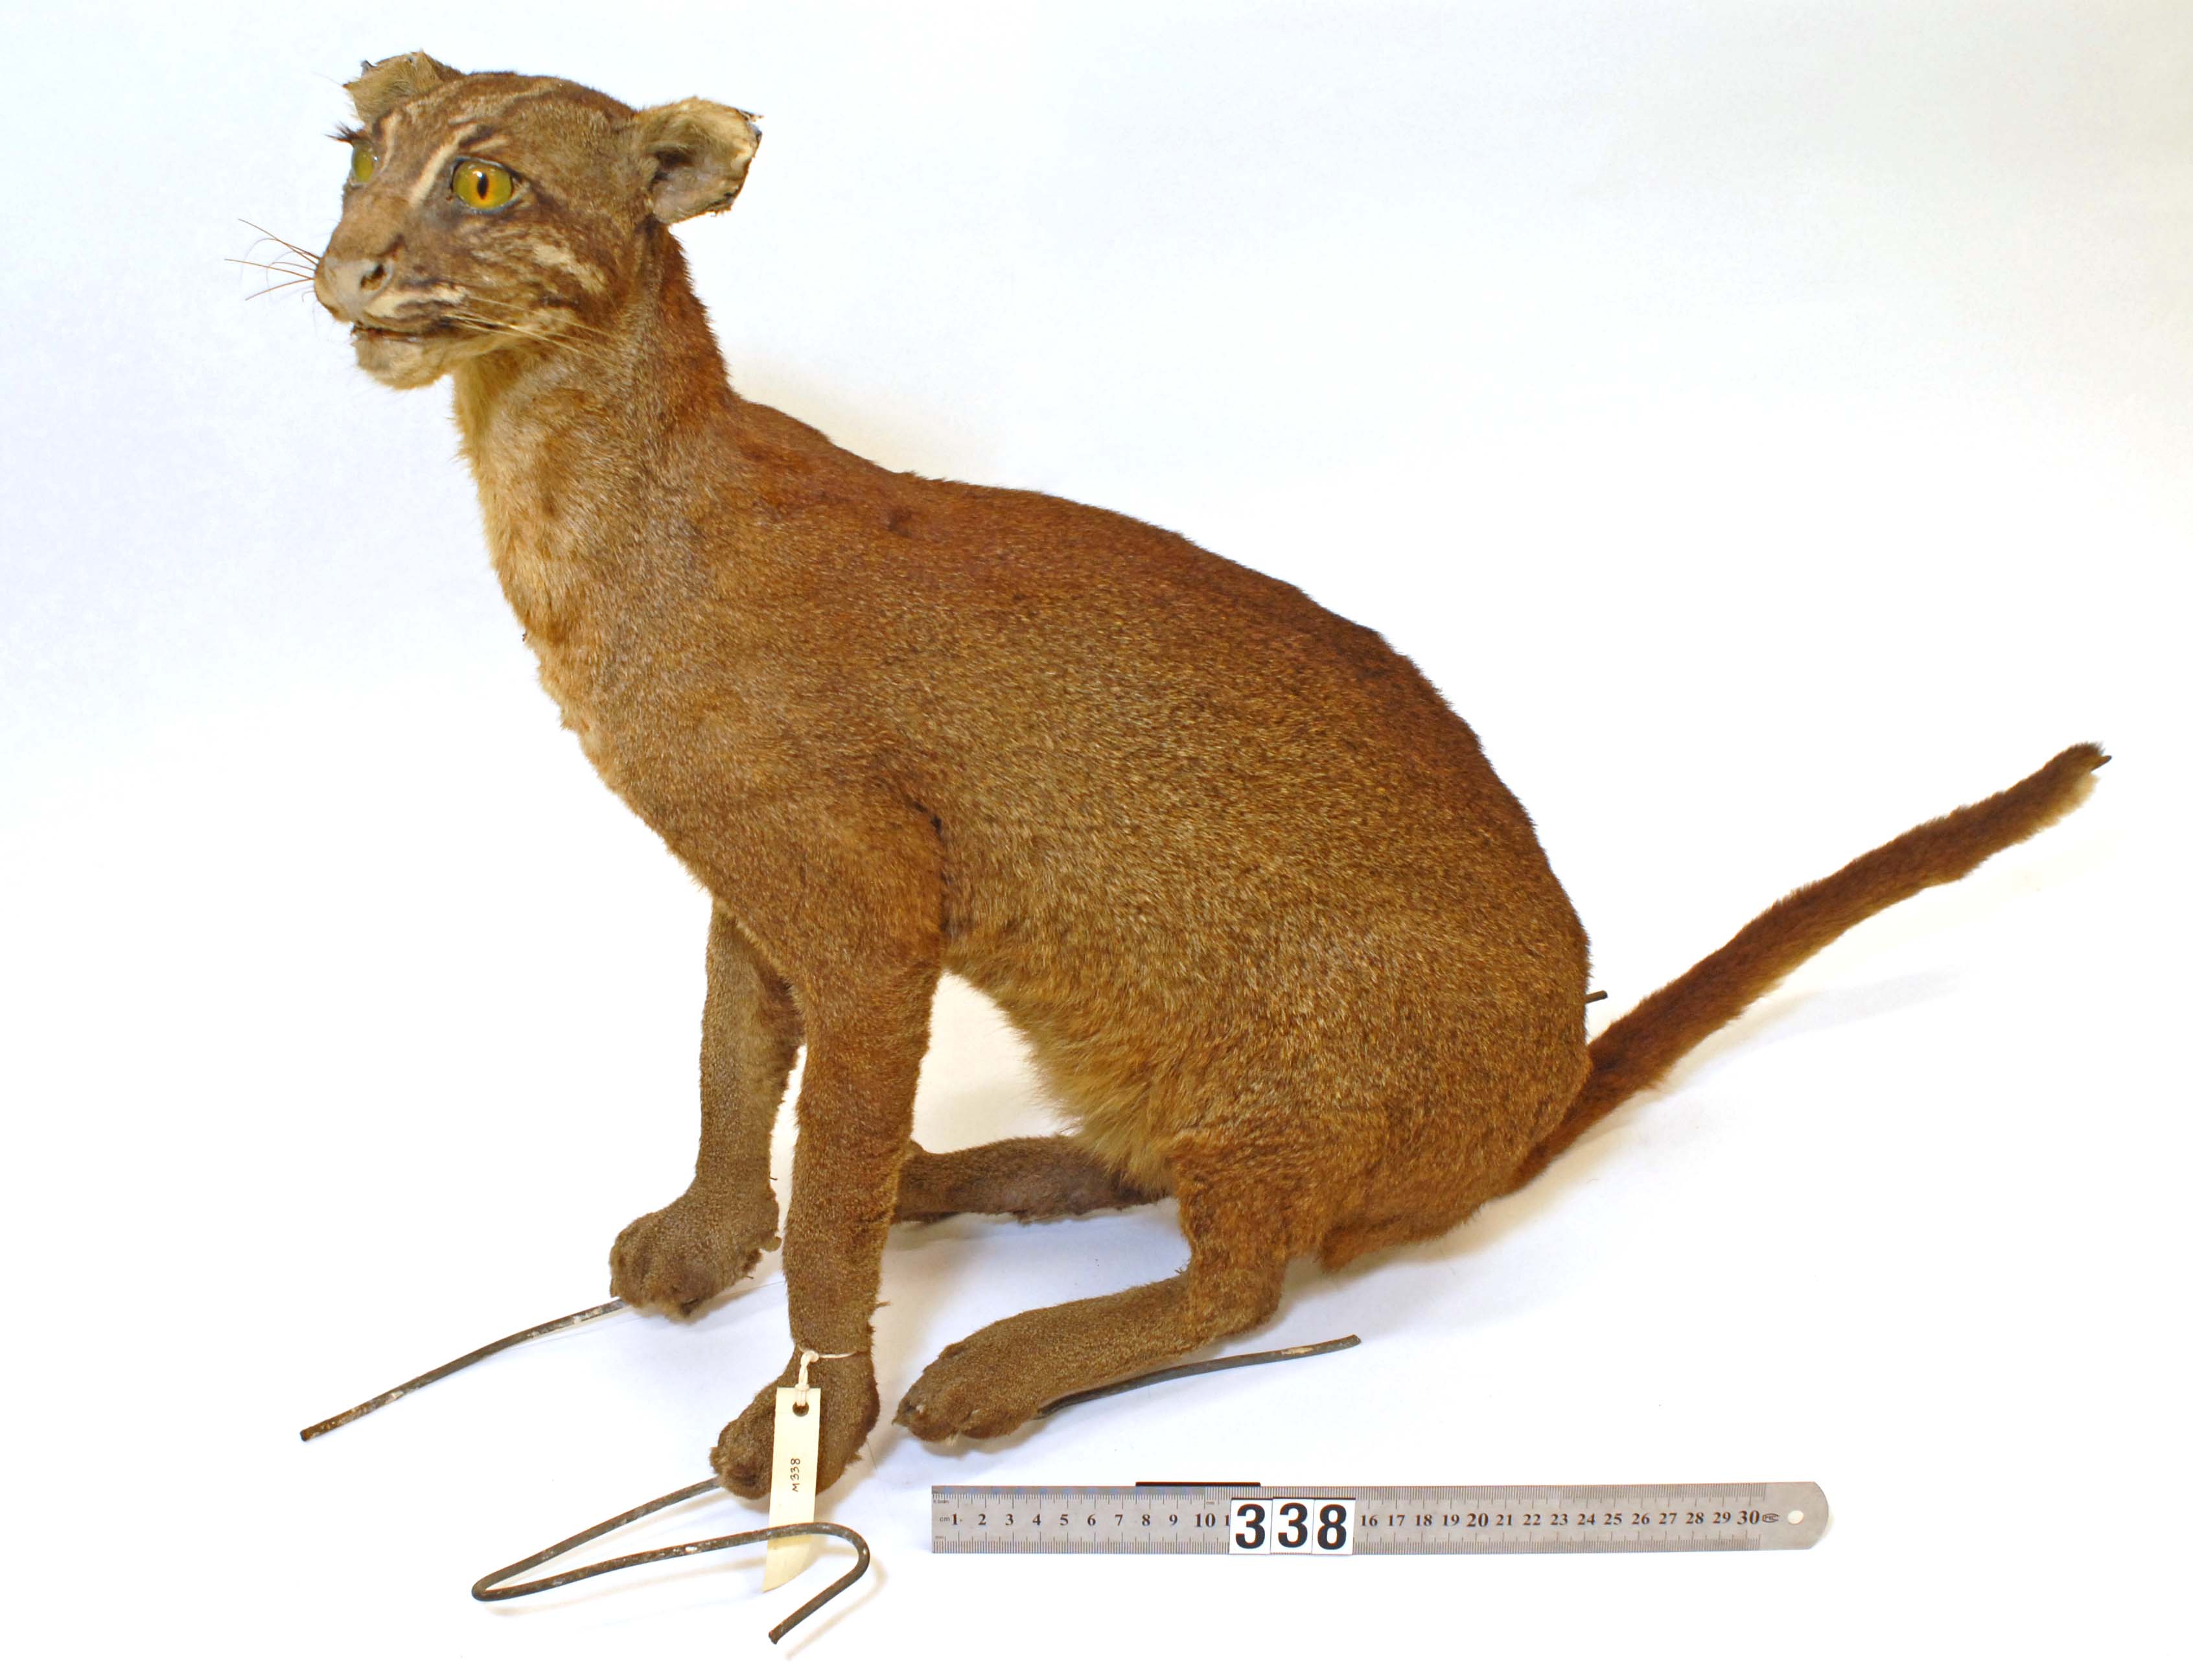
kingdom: Animalia
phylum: Chordata
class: Mammalia
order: Carnivora
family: Felidae
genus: Catopuma
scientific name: Catopuma temminckii
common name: Asian golden cat
